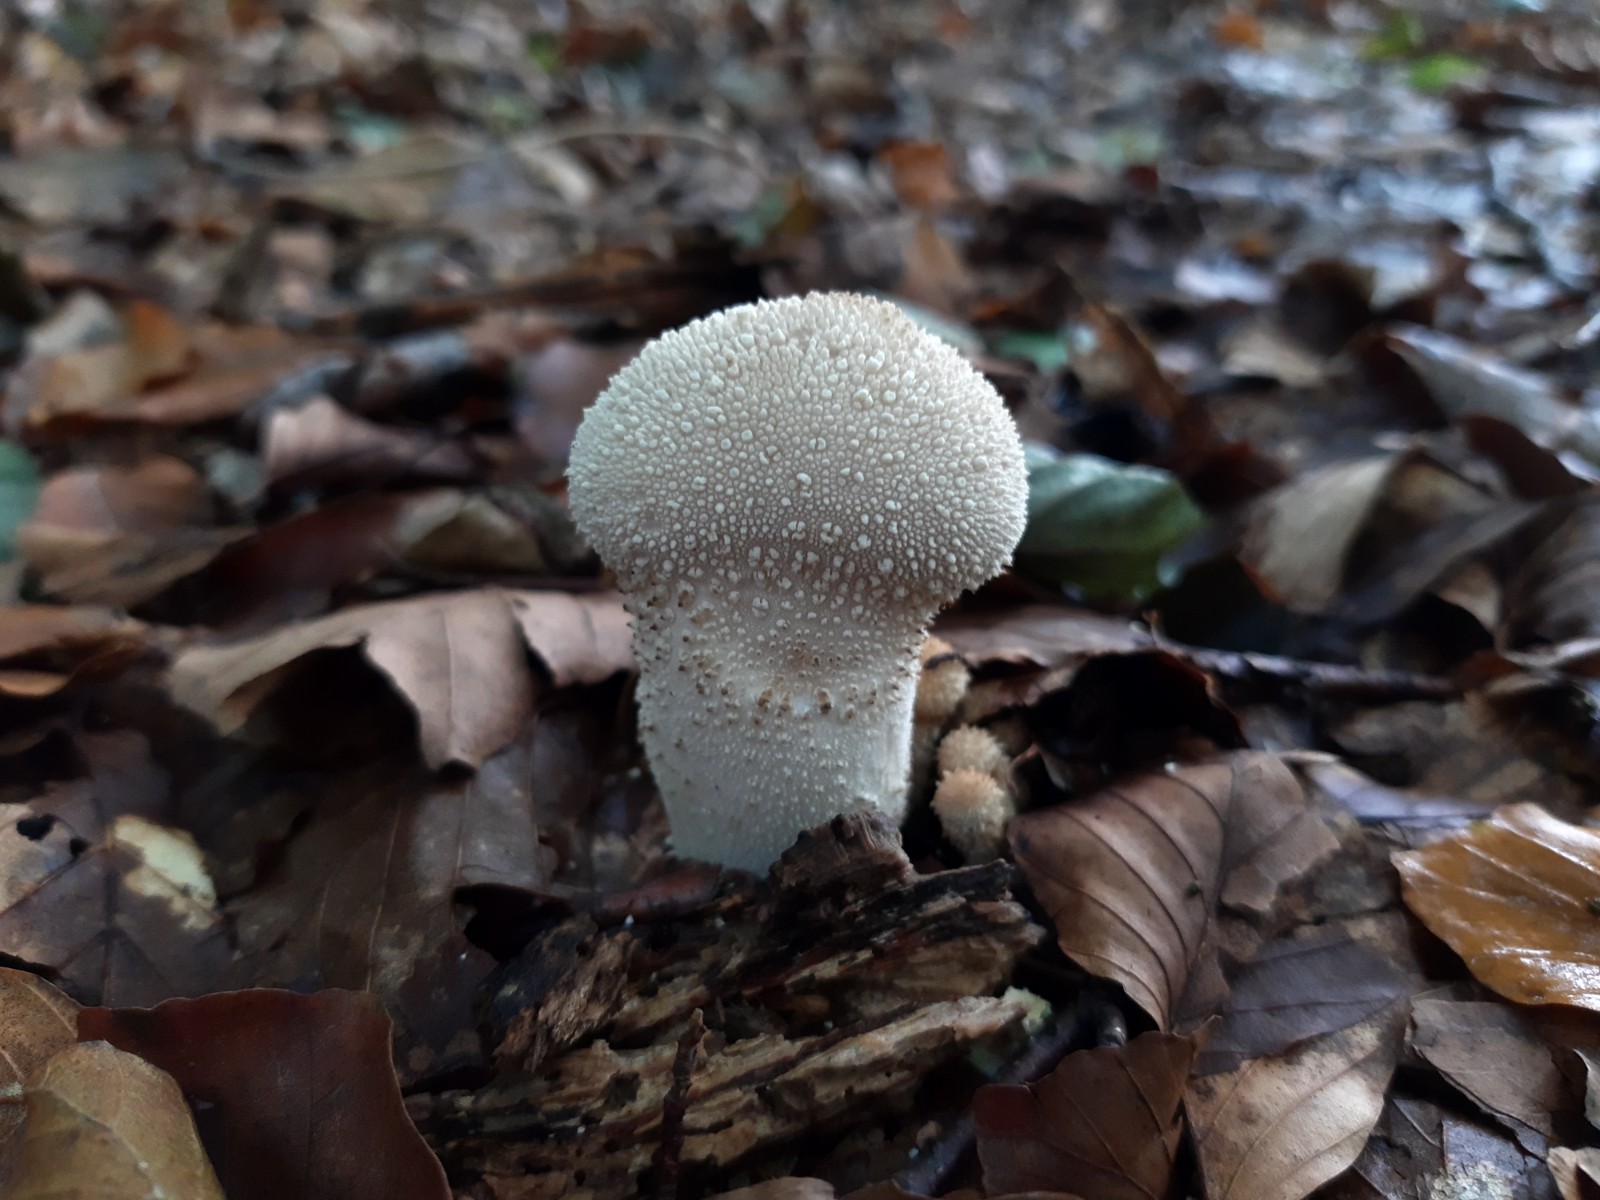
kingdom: Fungi
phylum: Basidiomycota
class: Agaricomycetes
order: Agaricales
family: Lycoperdaceae
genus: Lycoperdon
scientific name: Lycoperdon perlatum
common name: krystal-støvbold
